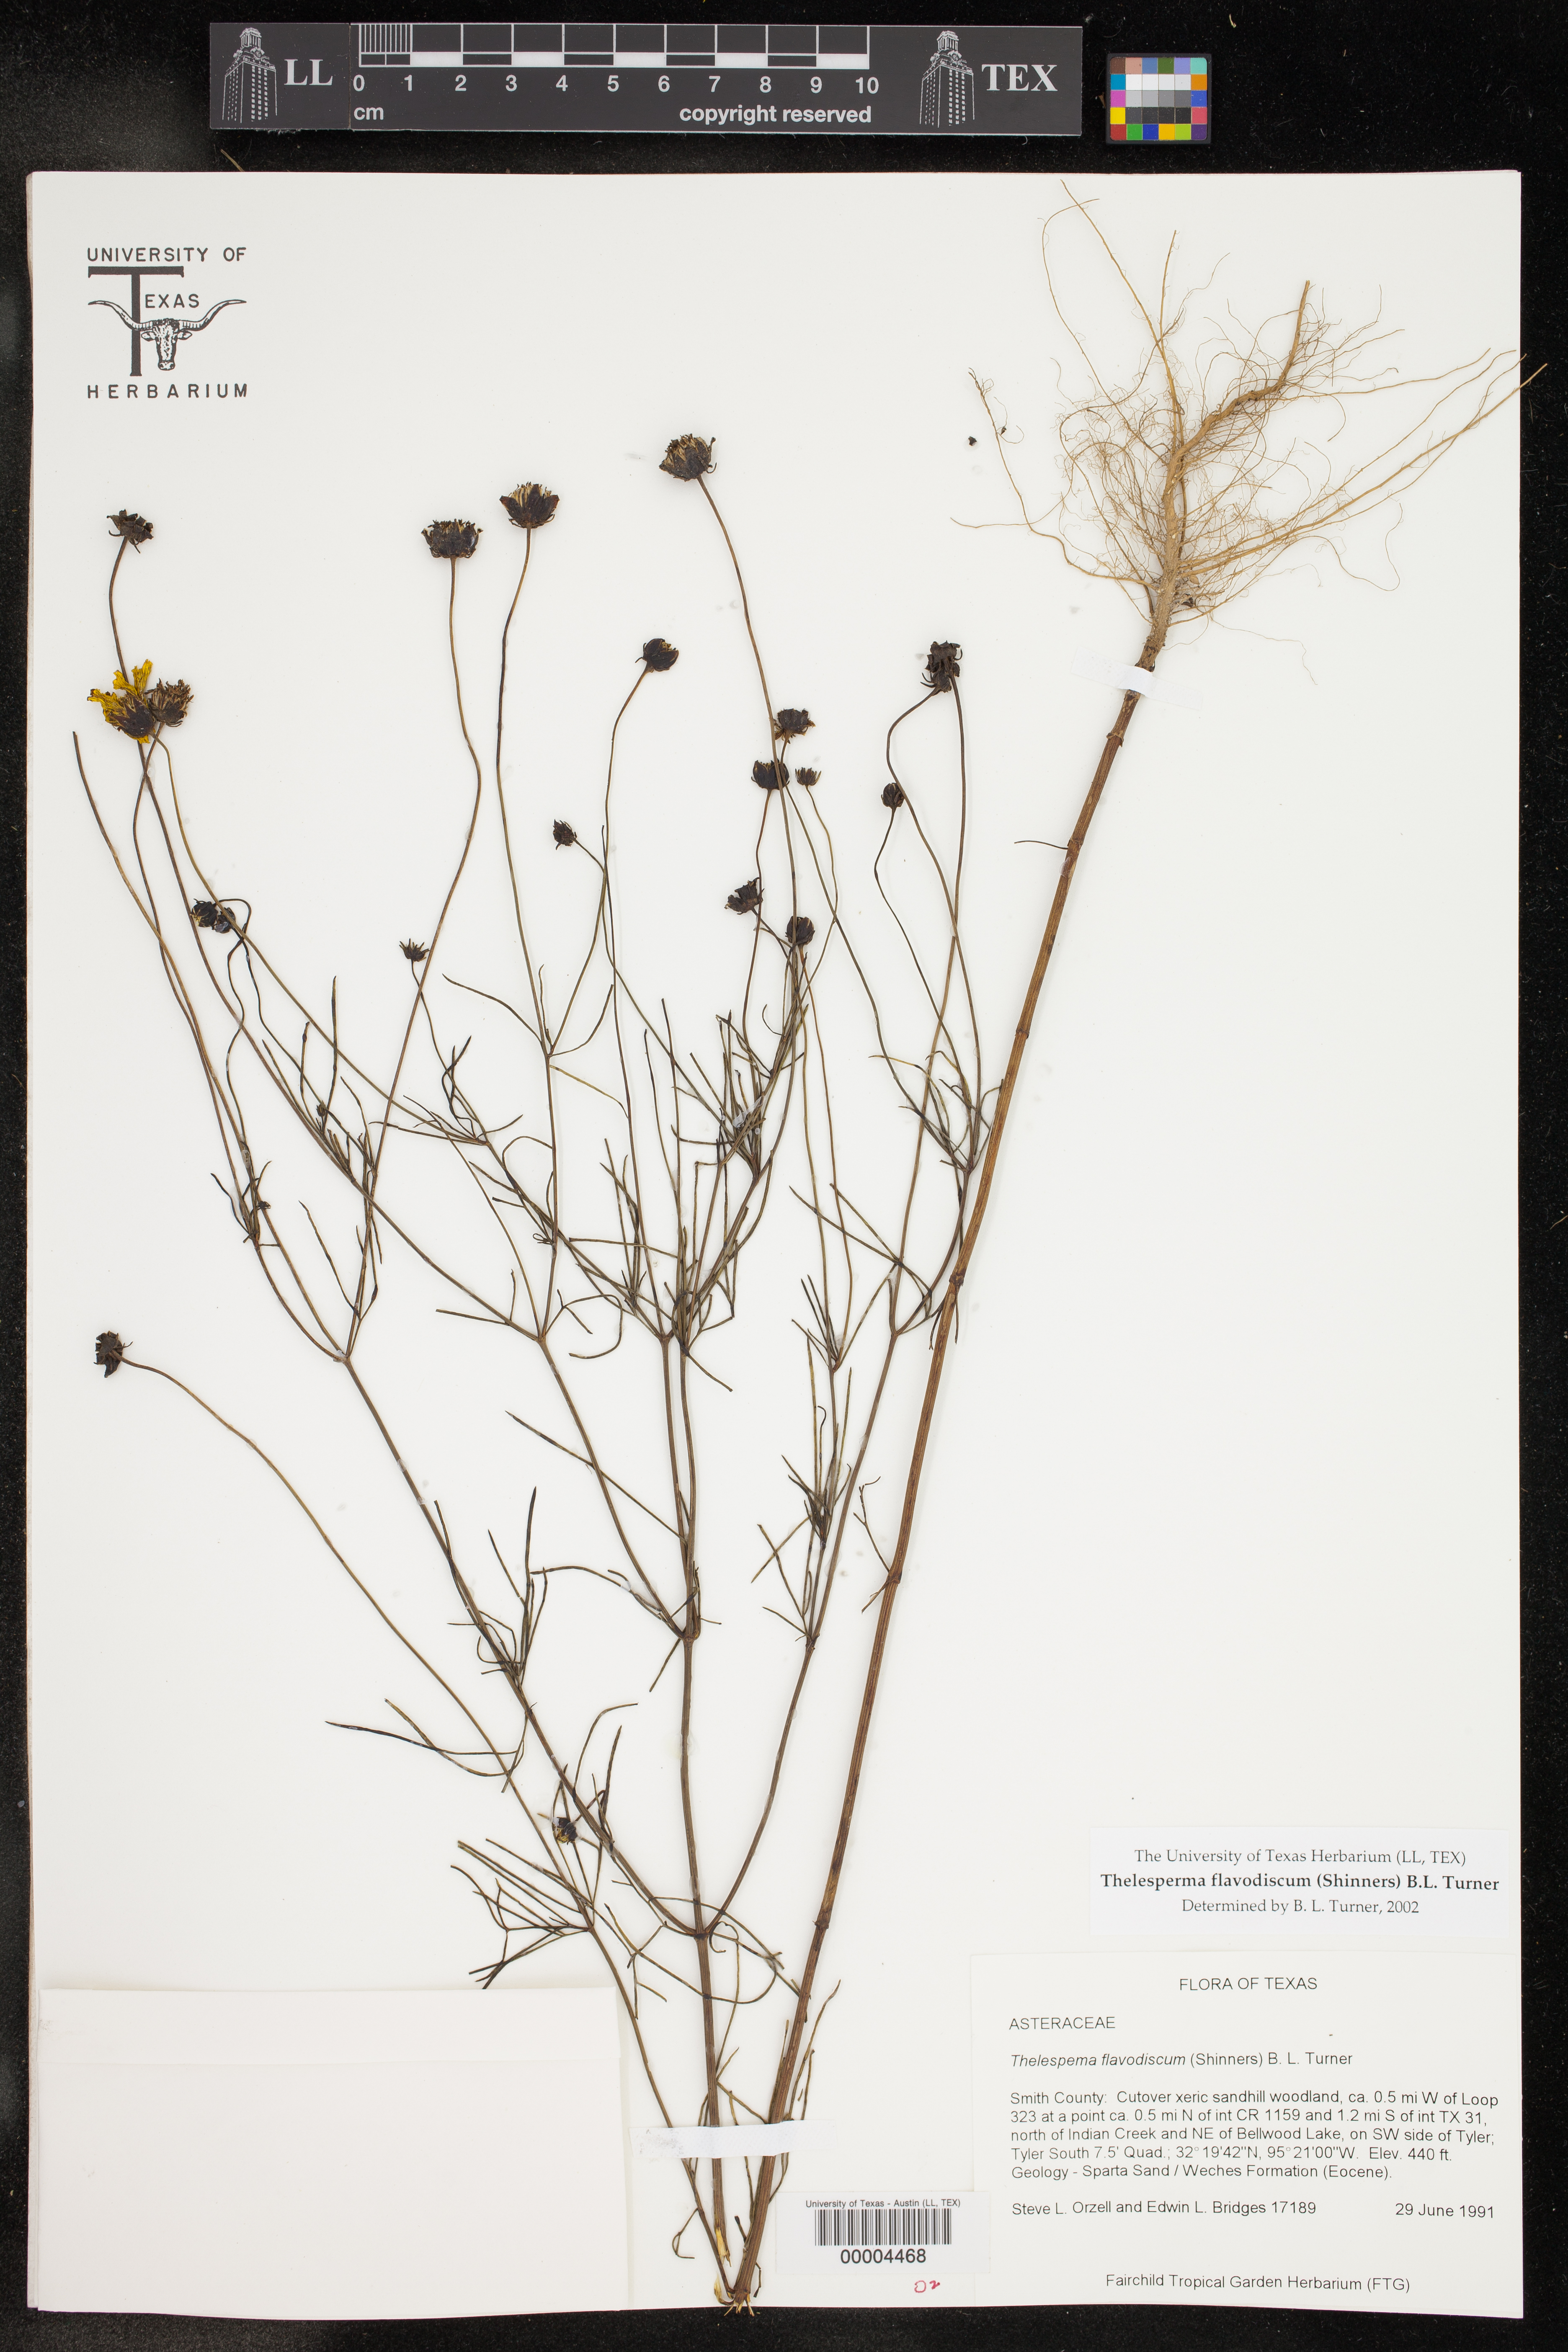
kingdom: Plantae
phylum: Tracheophyta
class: Magnoliopsida
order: Asterales
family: Asteraceae
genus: Thelesperma
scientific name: Thelesperma flavodiscum
